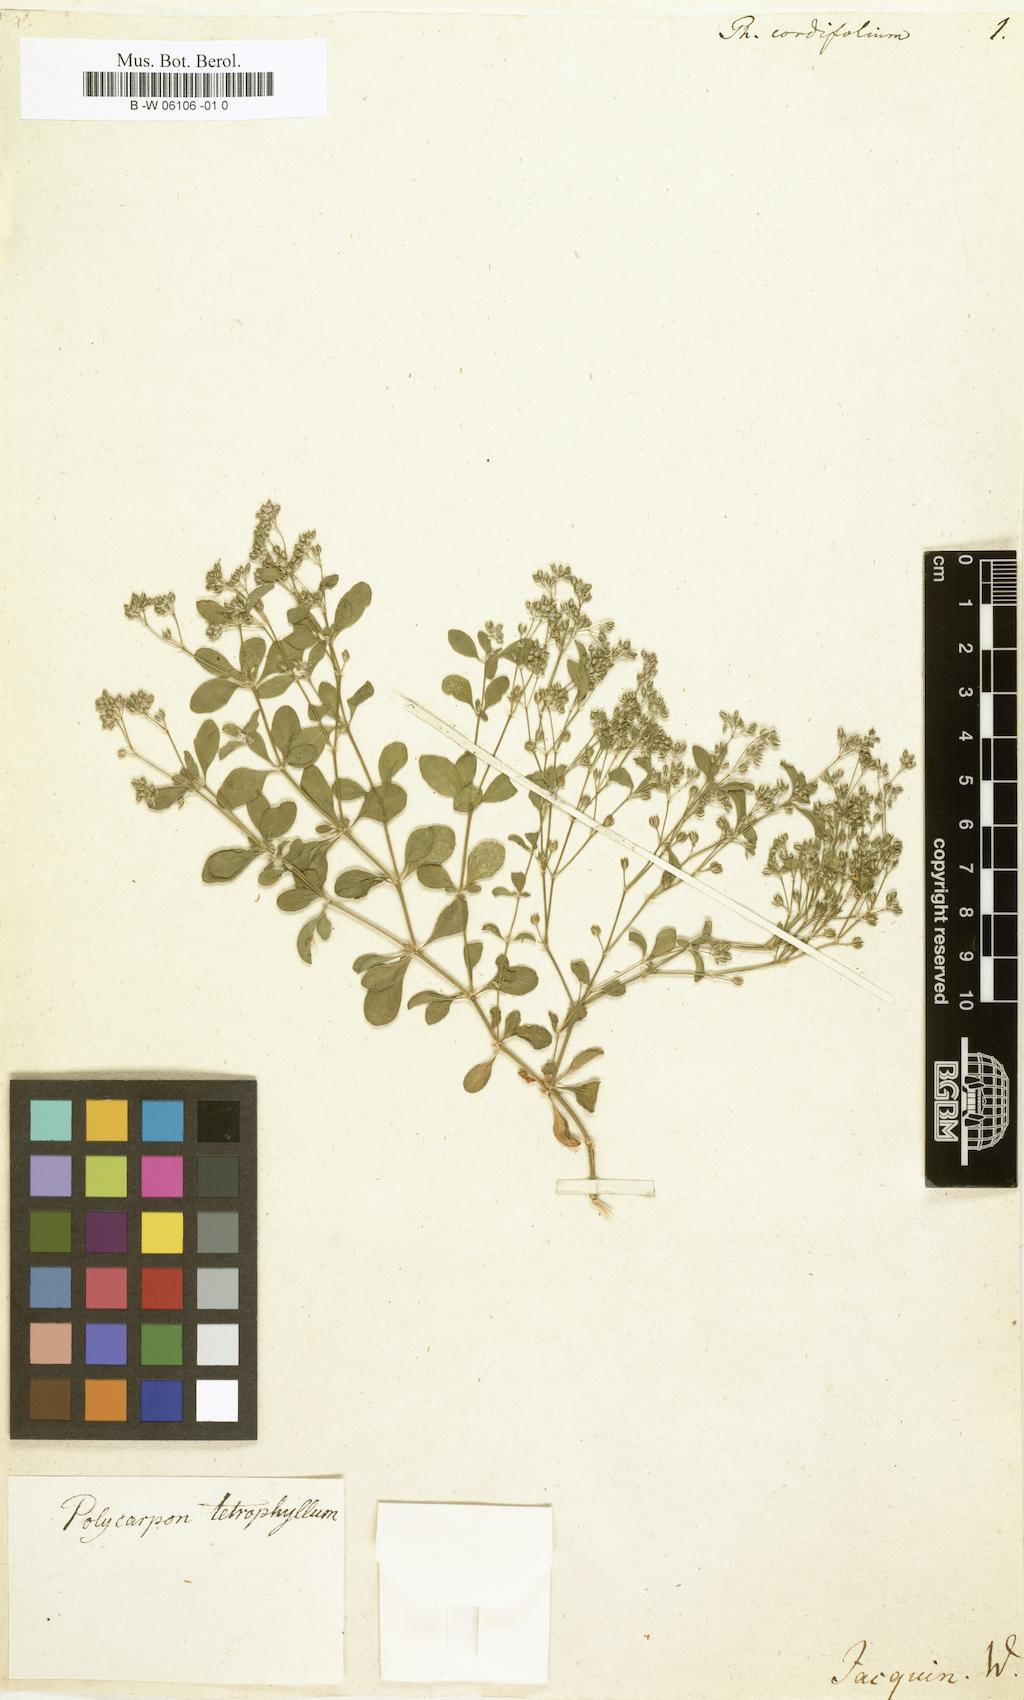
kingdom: Plantae
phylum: Tracheophyta
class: Magnoliopsida
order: Caryophyllales
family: Molluginaceae
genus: Pharnaceum
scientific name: Pharnaceum cordifolium
